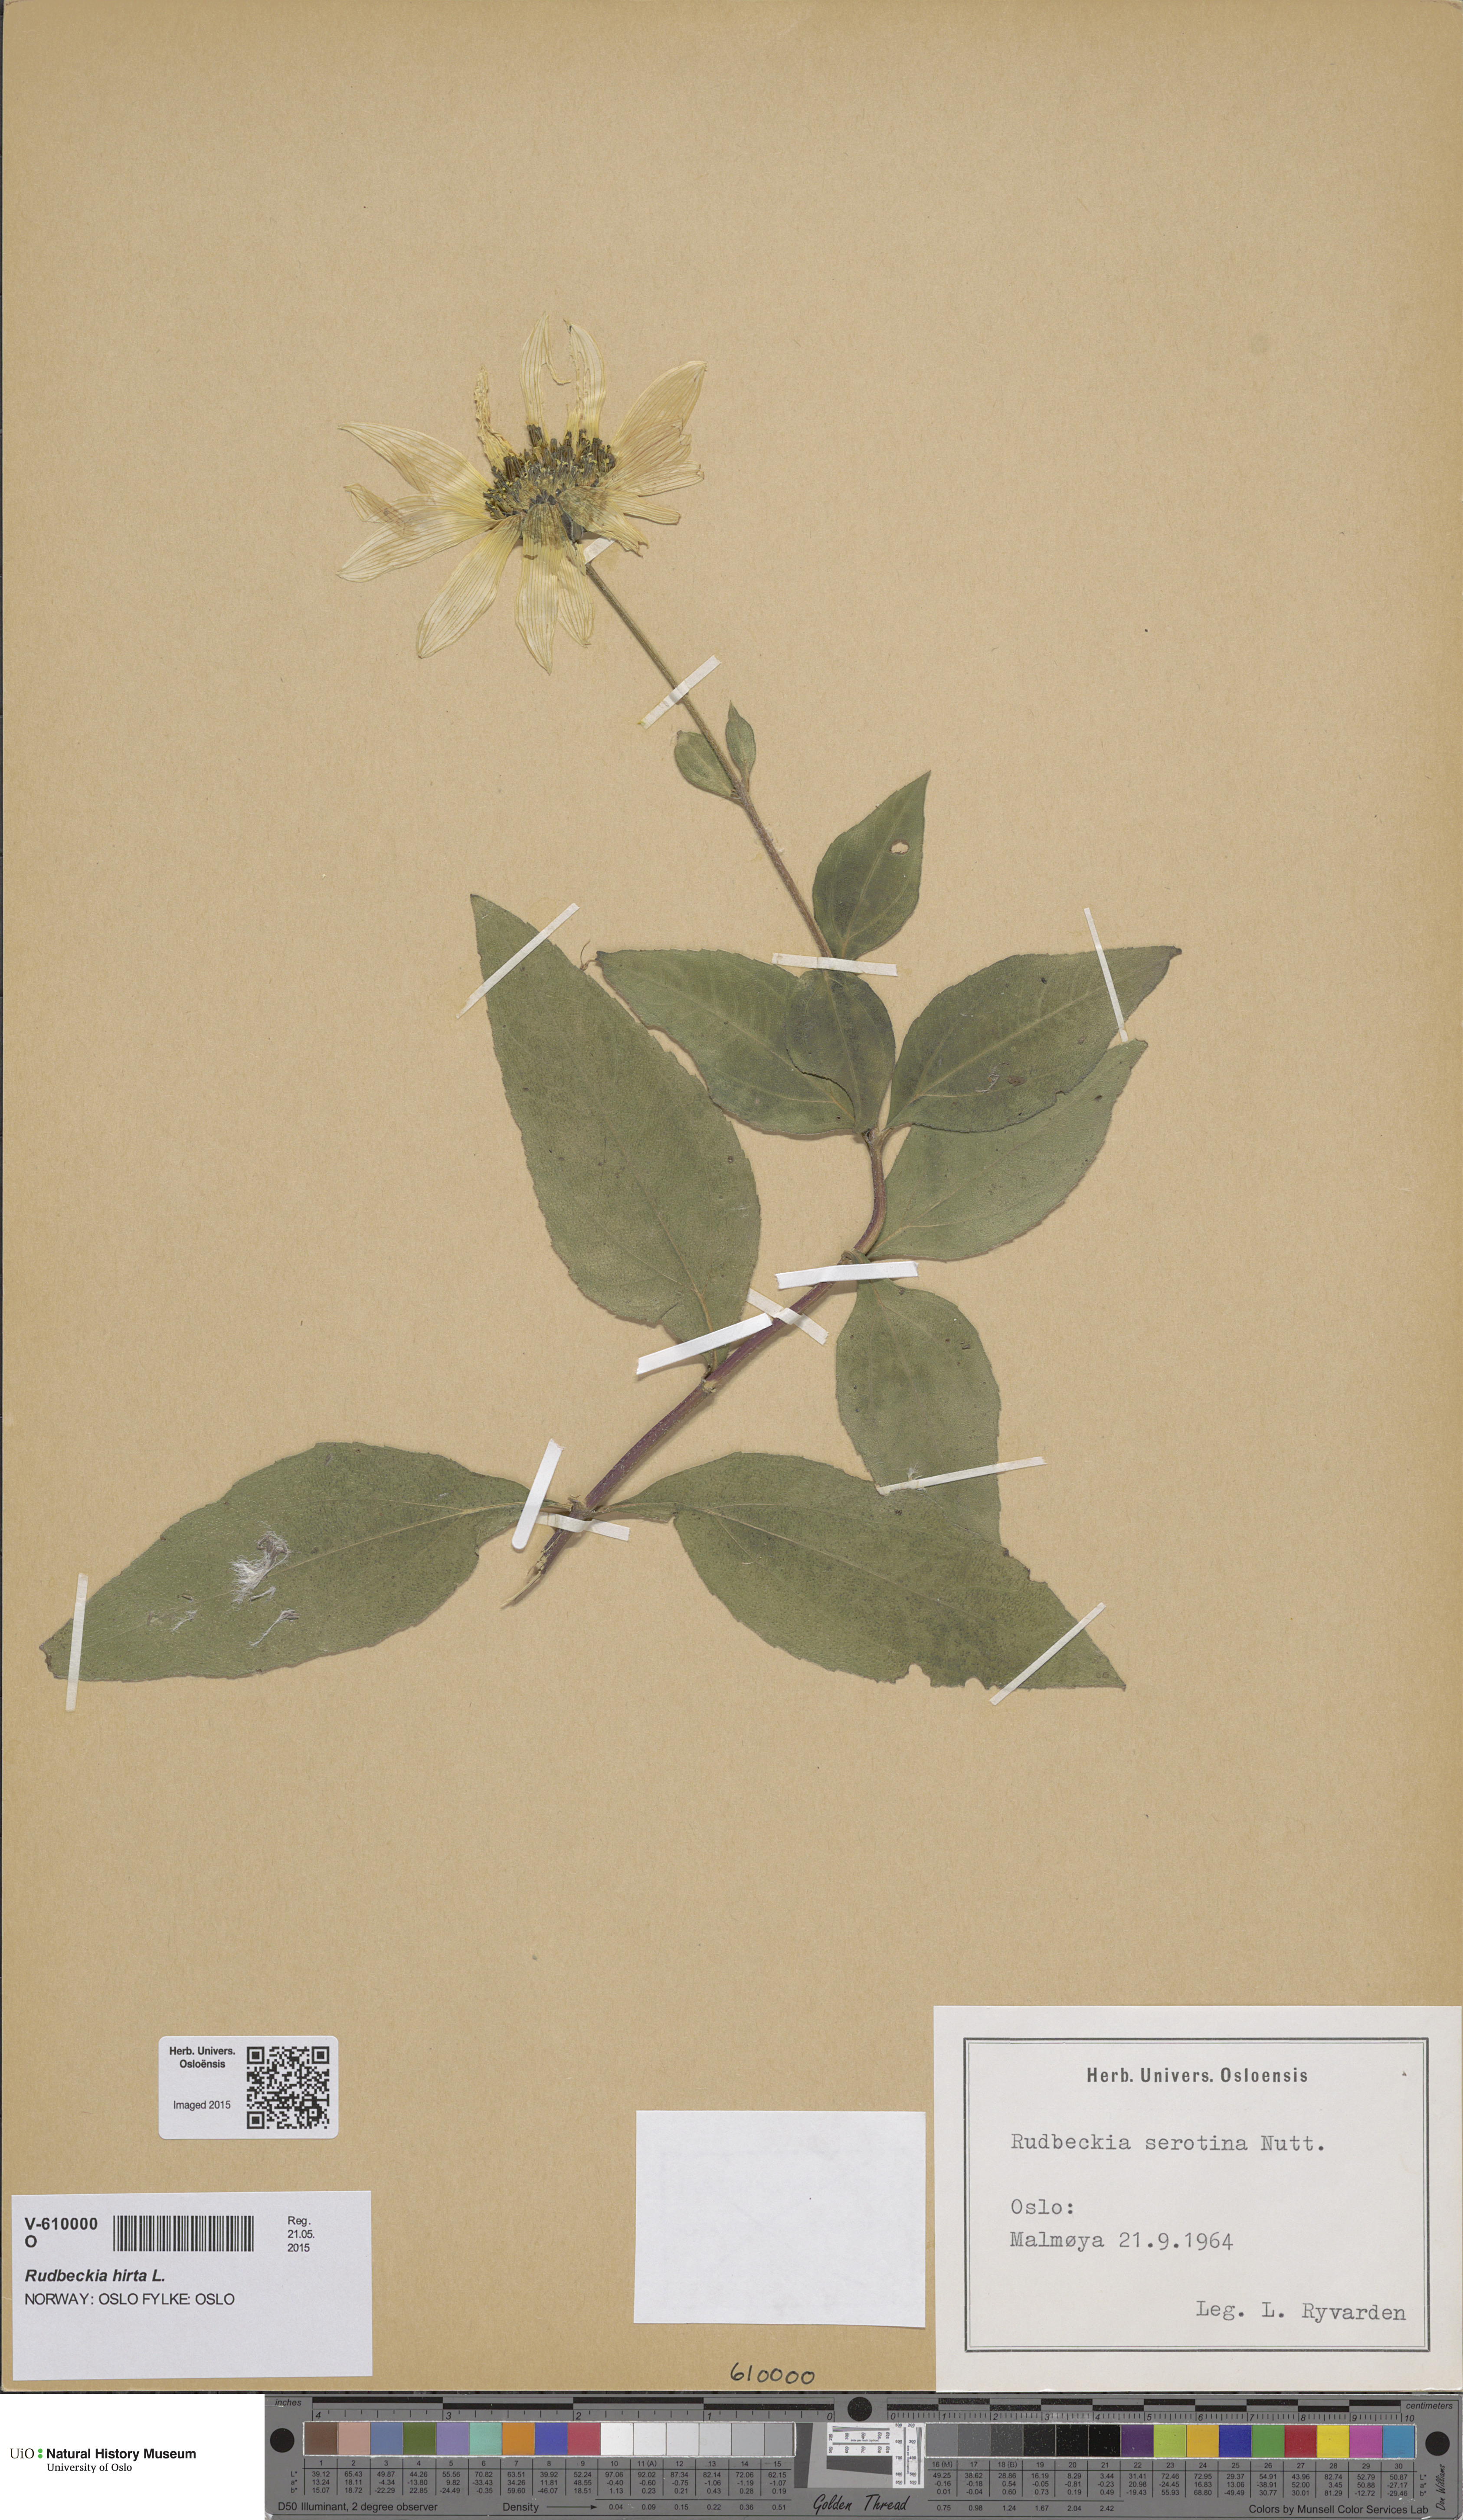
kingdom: Plantae
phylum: Tracheophyta
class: Magnoliopsida
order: Asterales
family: Asteraceae
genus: Helianthus
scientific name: Helianthus laetiflorus
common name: Perennial sunflower
